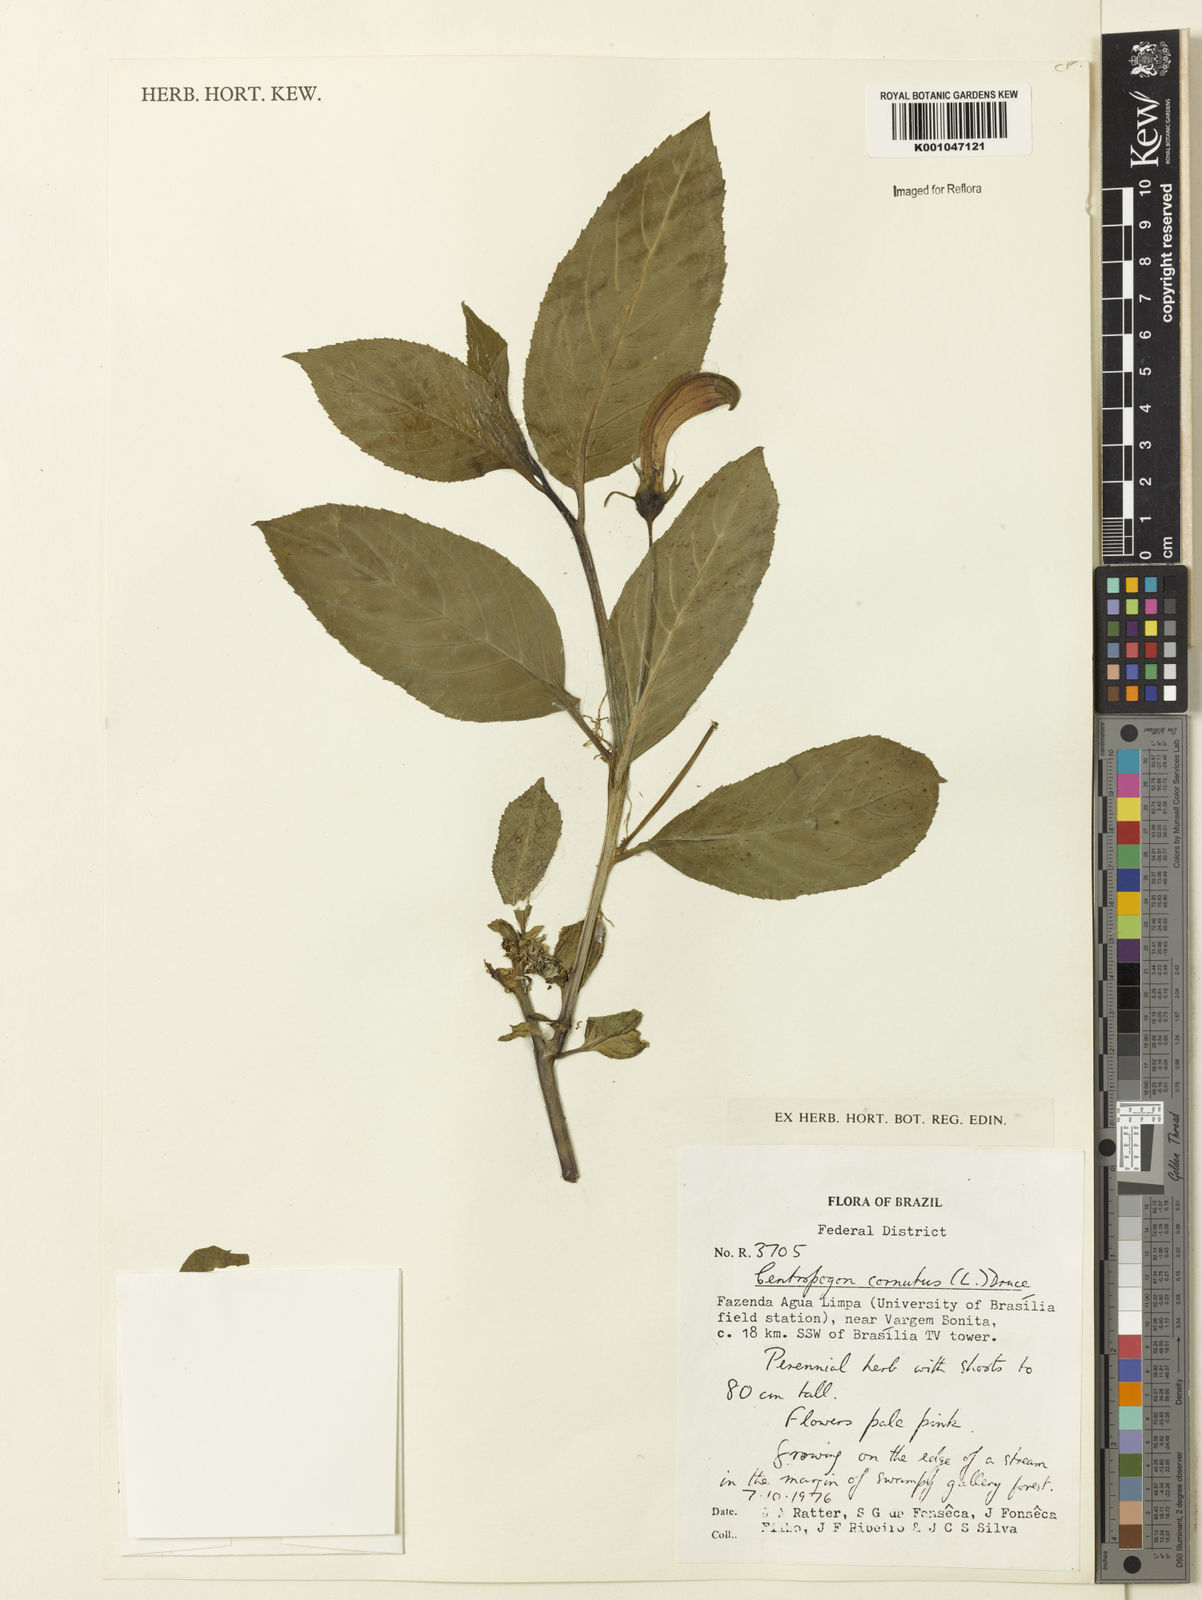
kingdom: Plantae
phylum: Tracheophyta
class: Magnoliopsida
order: Asterales
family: Campanulaceae
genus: Centropogon
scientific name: Centropogon cornutus
